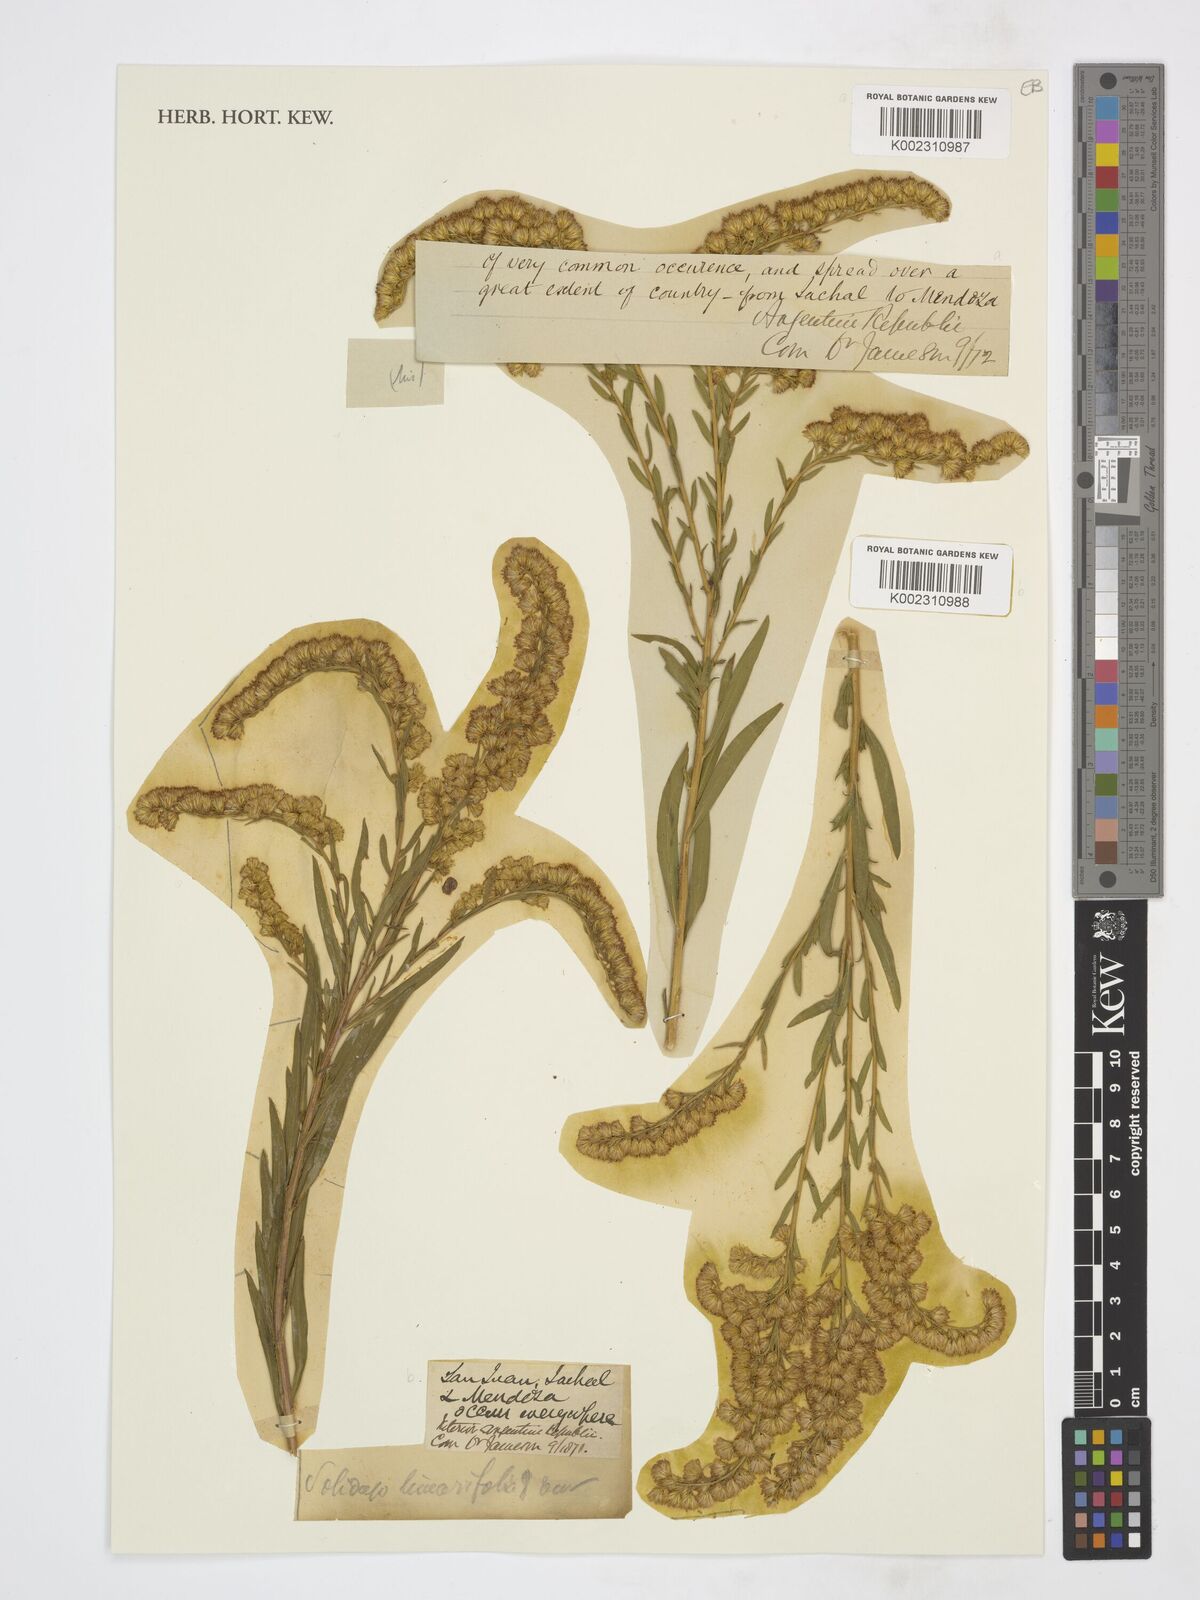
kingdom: Plantae
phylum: Tracheophyta
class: Magnoliopsida
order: Asterales
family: Asteraceae
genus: Solidago
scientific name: Solidago chilensis
